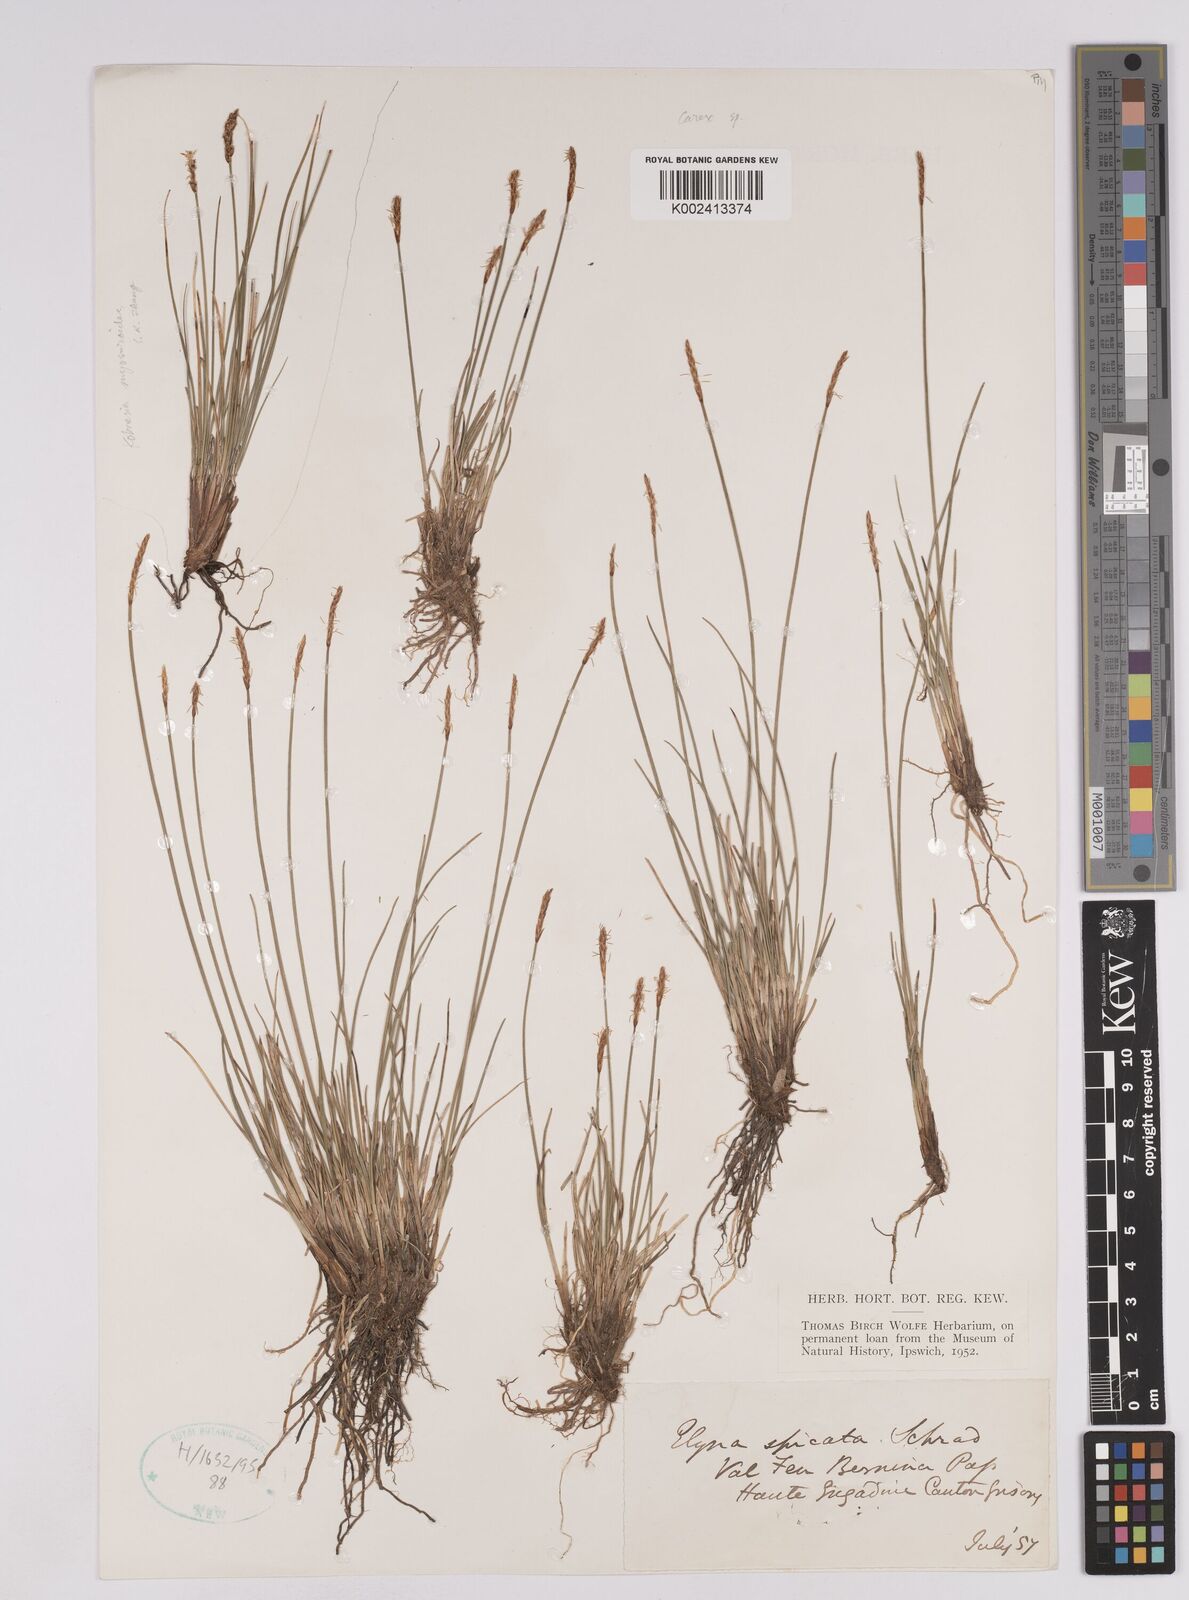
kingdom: Plantae
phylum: Tracheophyta
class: Liliopsida
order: Poales
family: Cyperaceae
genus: Carex
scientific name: Carex myosuroides
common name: Bellard's bog sedge
